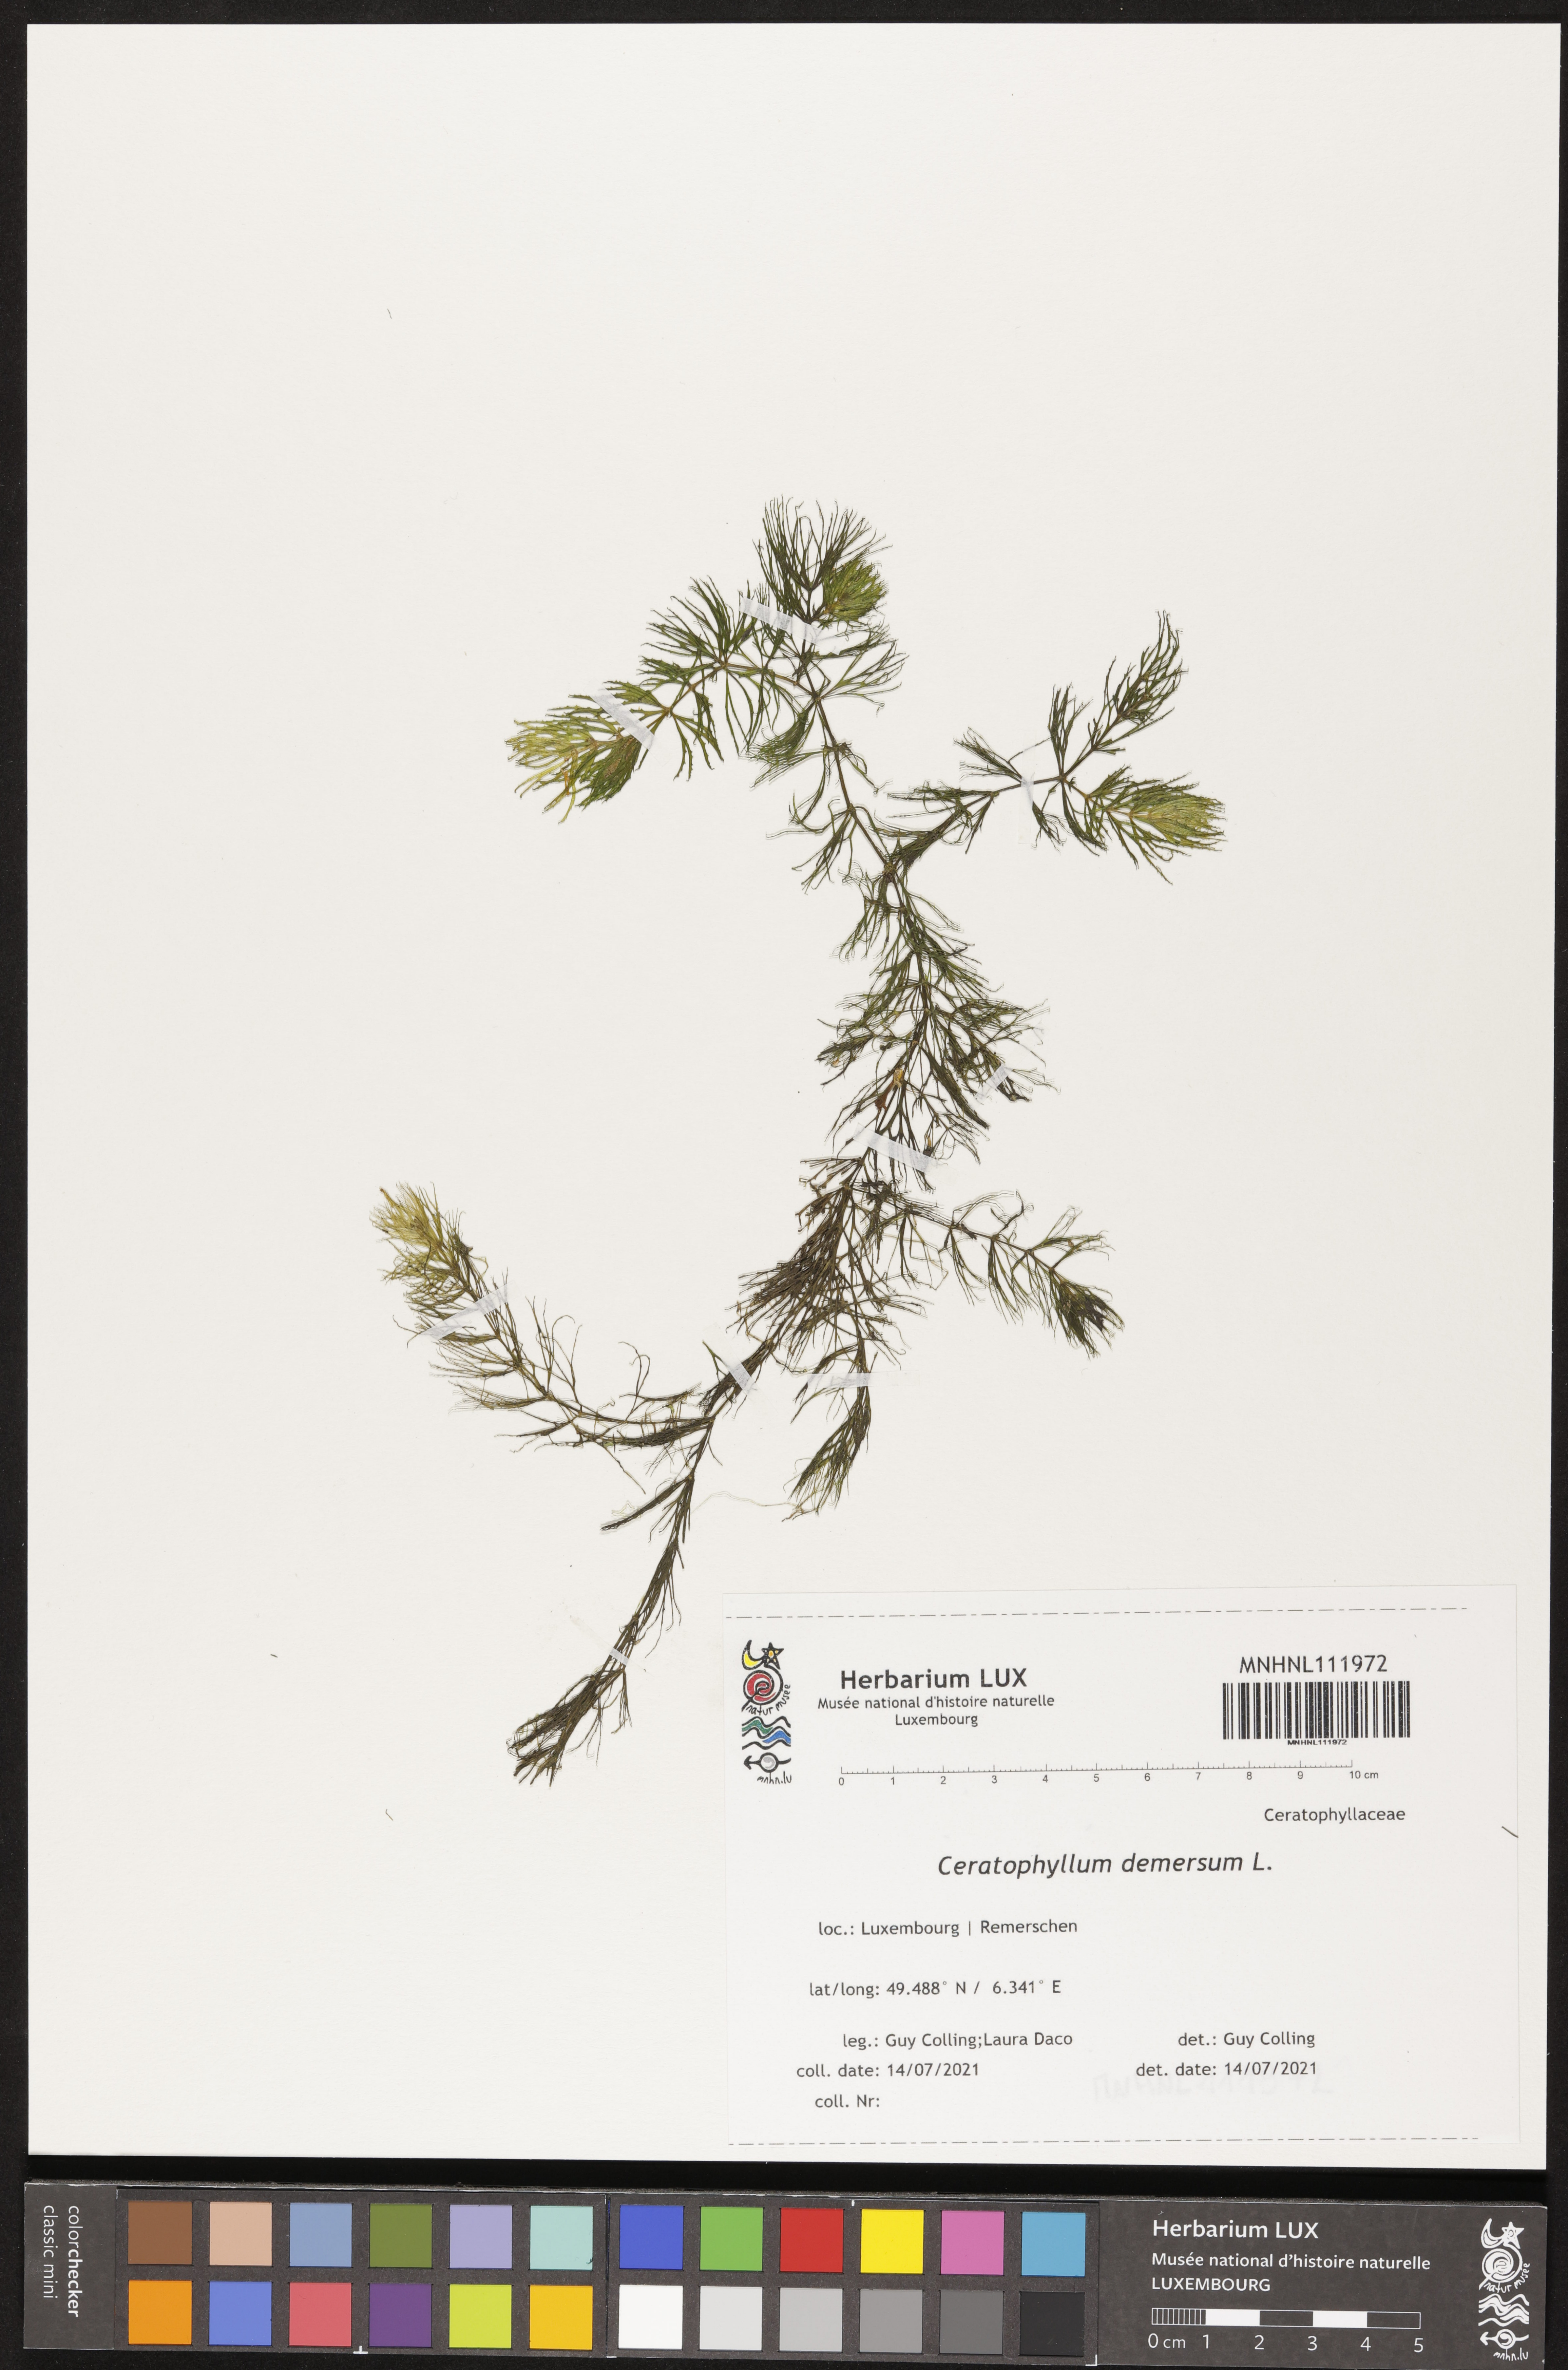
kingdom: Plantae
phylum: Tracheophyta
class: Magnoliopsida
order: Ceratophyllales
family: Ceratophyllaceae
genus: Ceratophyllum
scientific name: Ceratophyllum demersum
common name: Rigid hornwort
